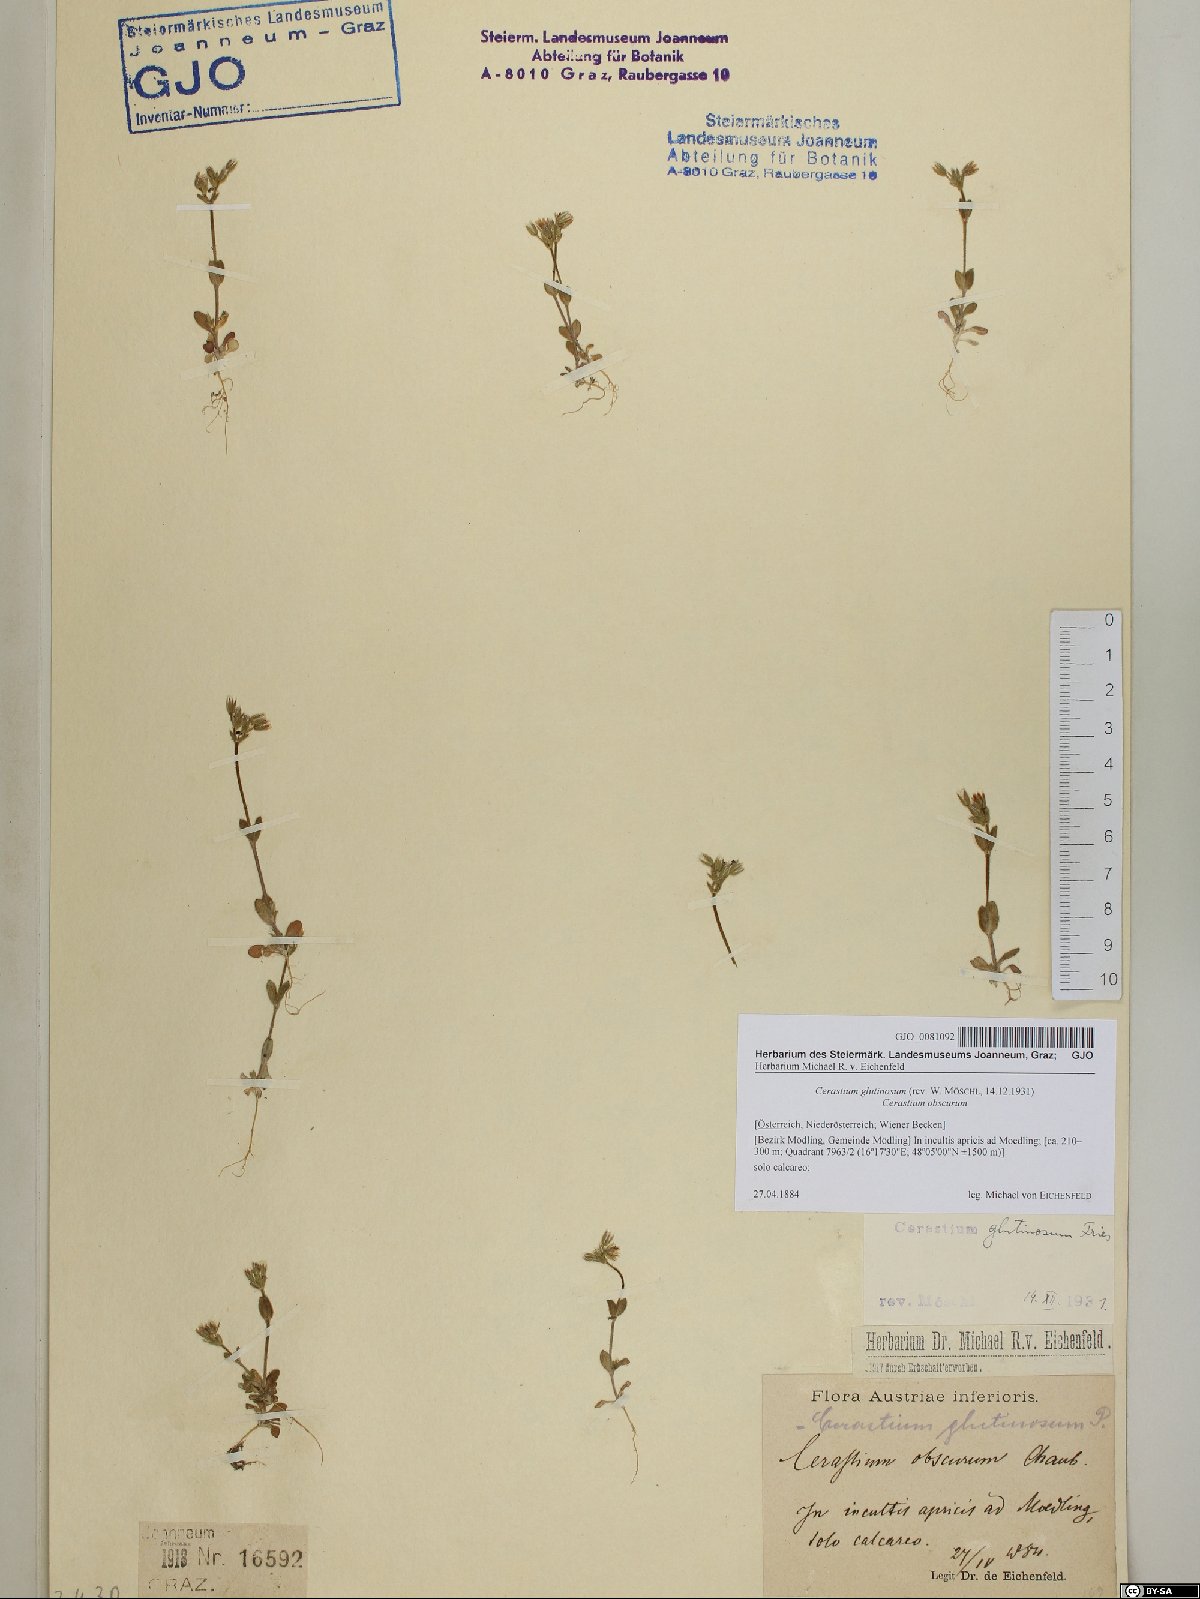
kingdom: Plantae
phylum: Tracheophyta
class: Magnoliopsida
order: Caryophyllales
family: Caryophyllaceae
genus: Cerastium
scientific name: Cerastium glutinosum
